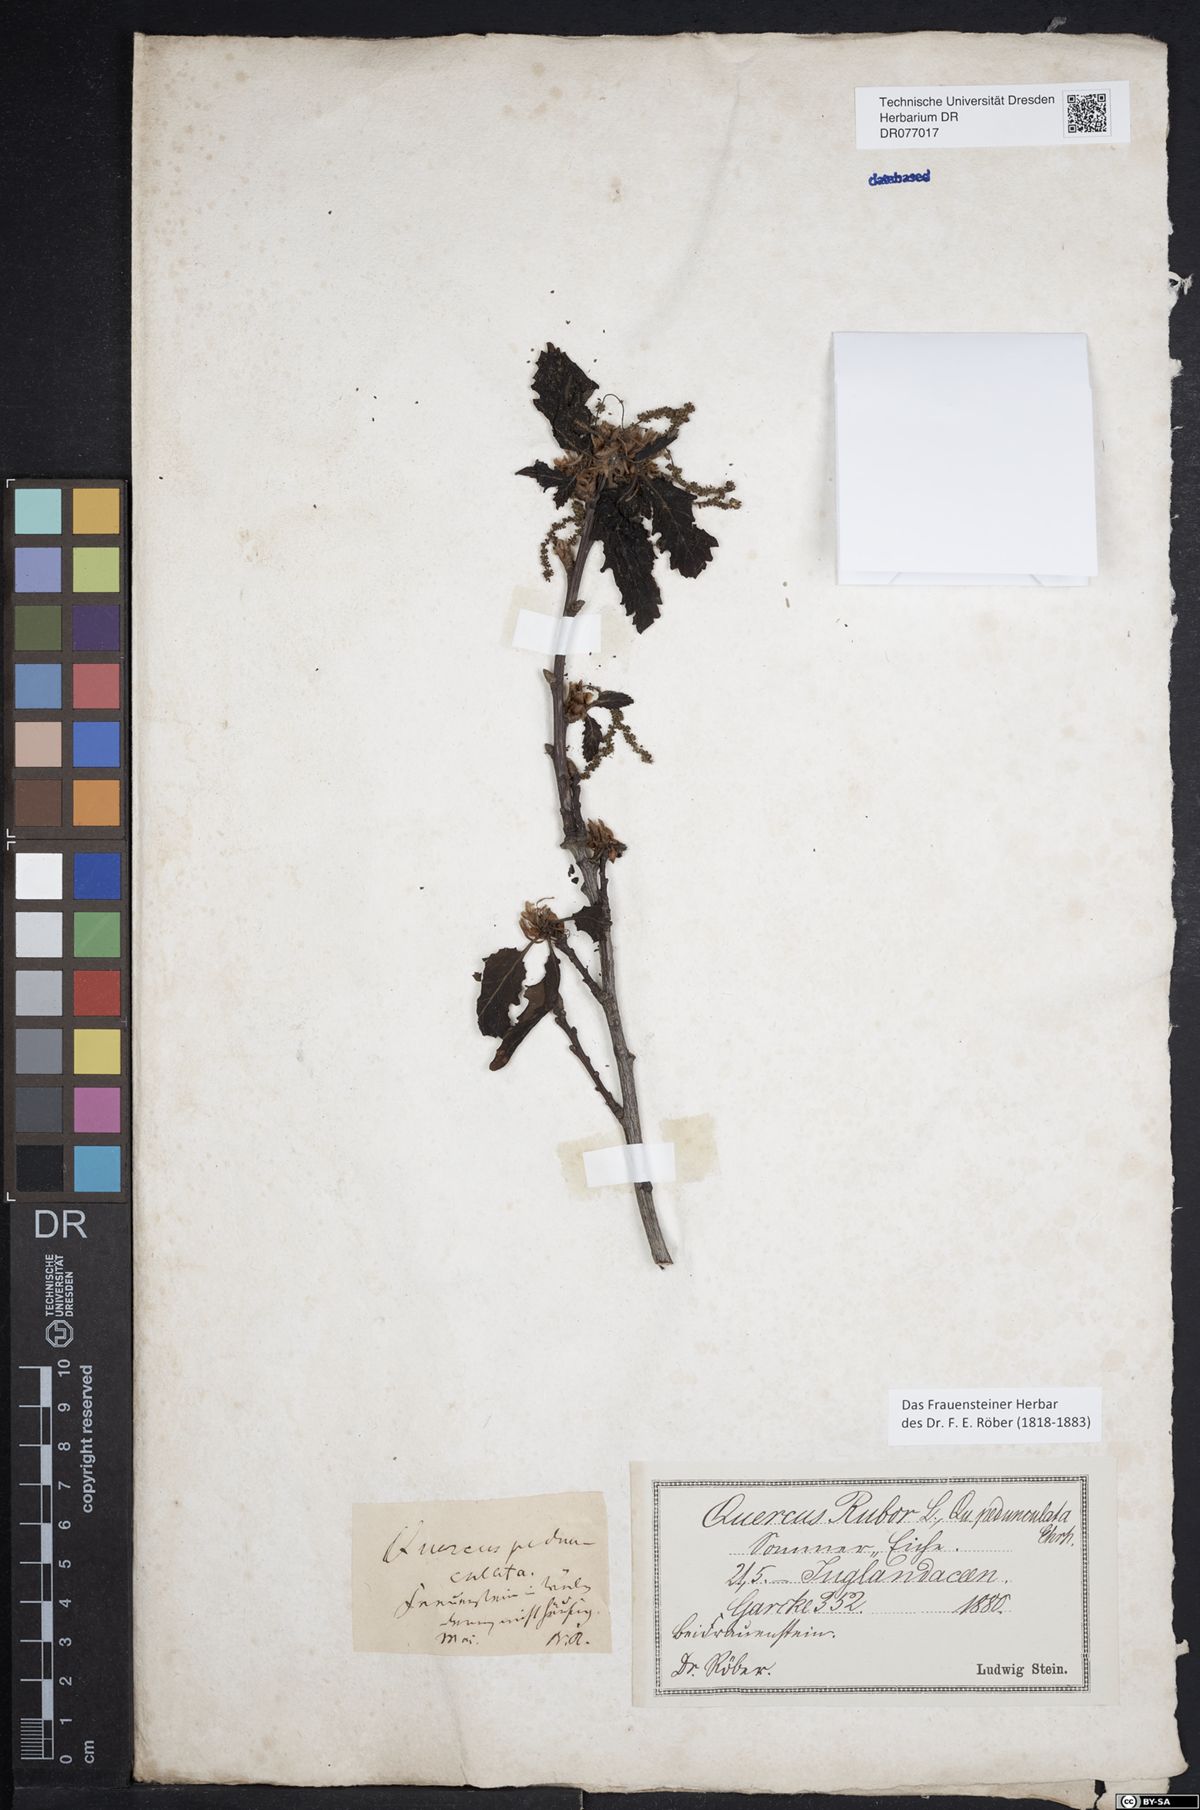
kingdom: Plantae
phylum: Tracheophyta
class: Magnoliopsida
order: Fagales
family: Fagaceae
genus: Quercus
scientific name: Quercus robur
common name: Pedunculate oak
